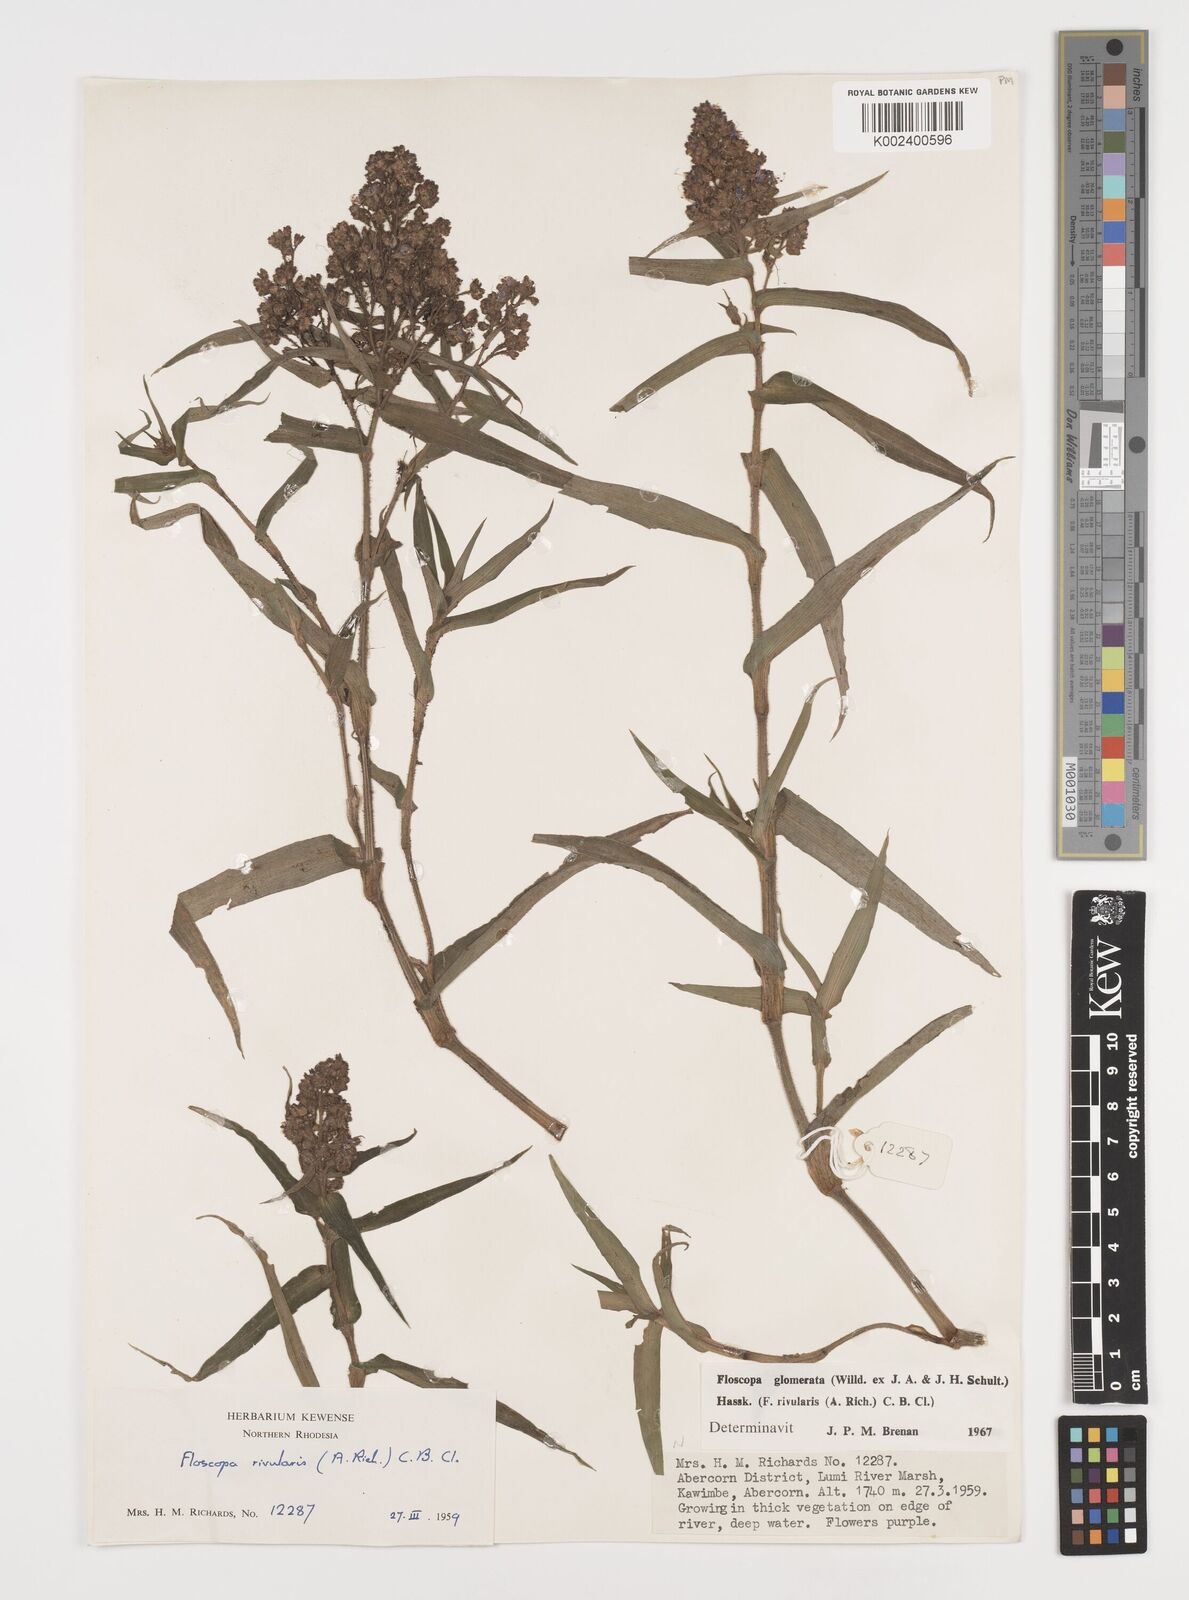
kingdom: Plantae
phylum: Tracheophyta
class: Liliopsida
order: Commelinales
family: Commelinaceae
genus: Floscopa
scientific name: Floscopa glomerata
